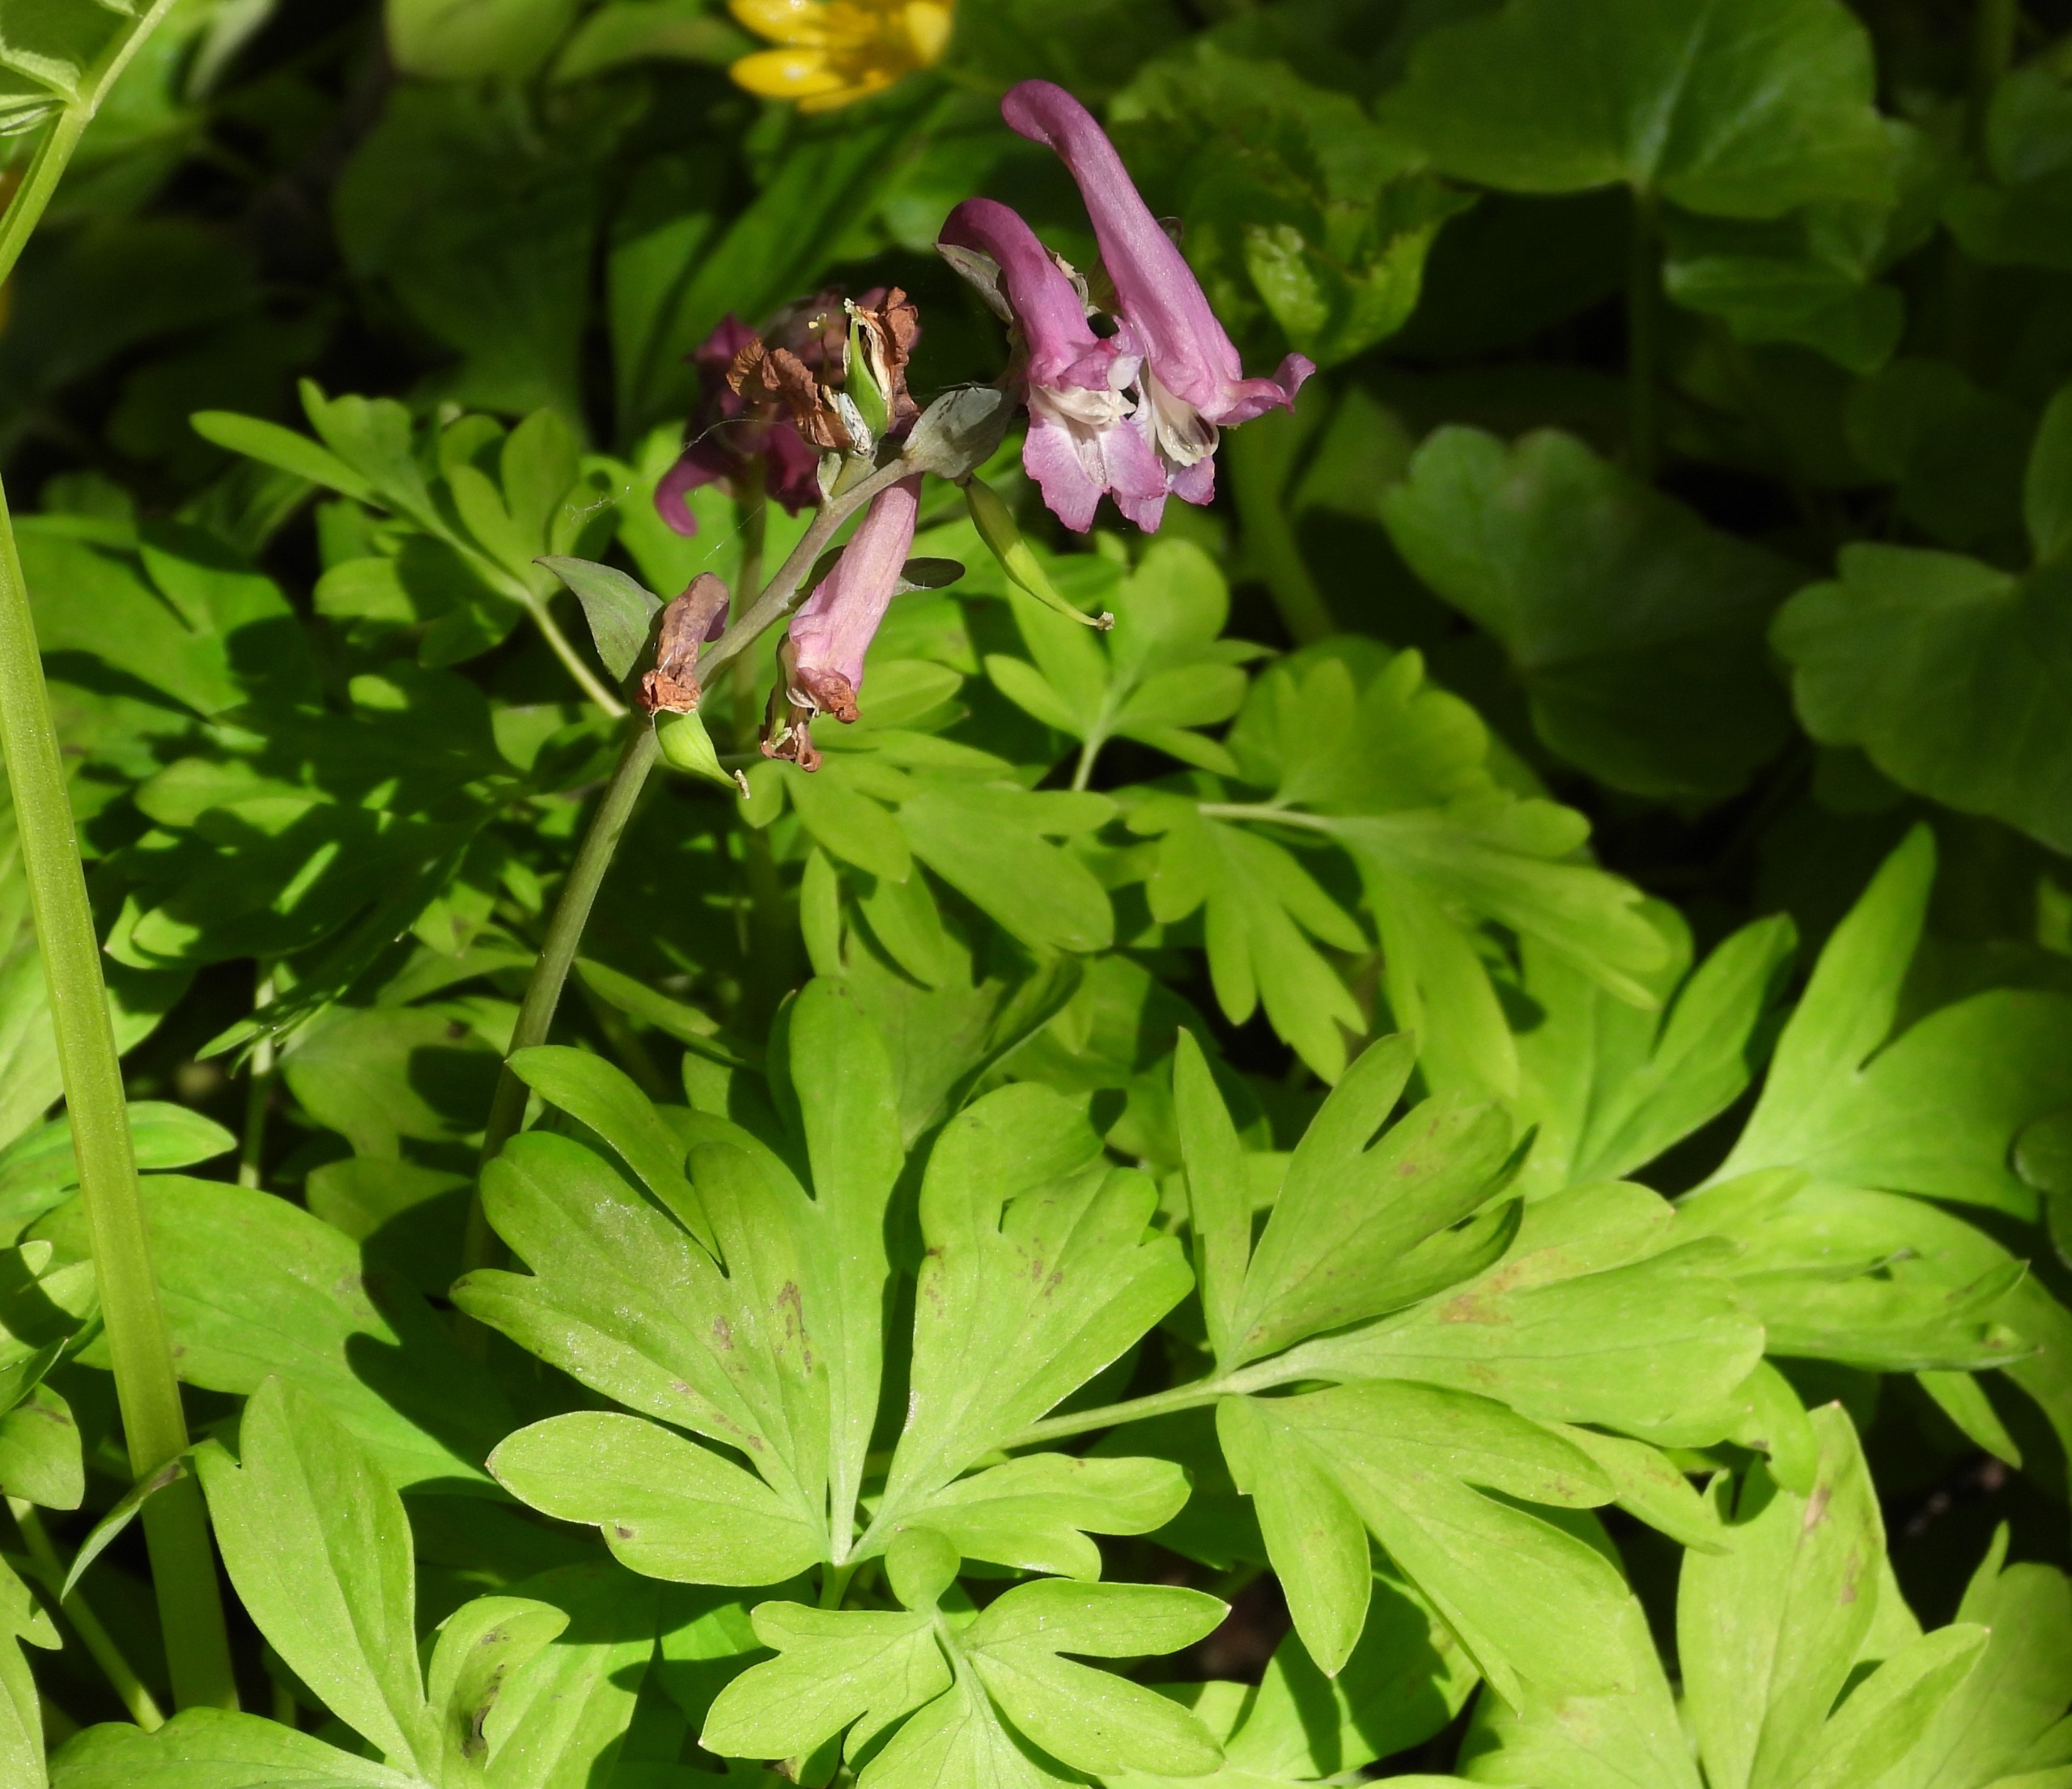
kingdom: Plantae
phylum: Tracheophyta
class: Magnoliopsida
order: Ranunculales
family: Papaveraceae
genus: Corydalis
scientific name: Corydalis cava
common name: Hulrodet lærkespore
